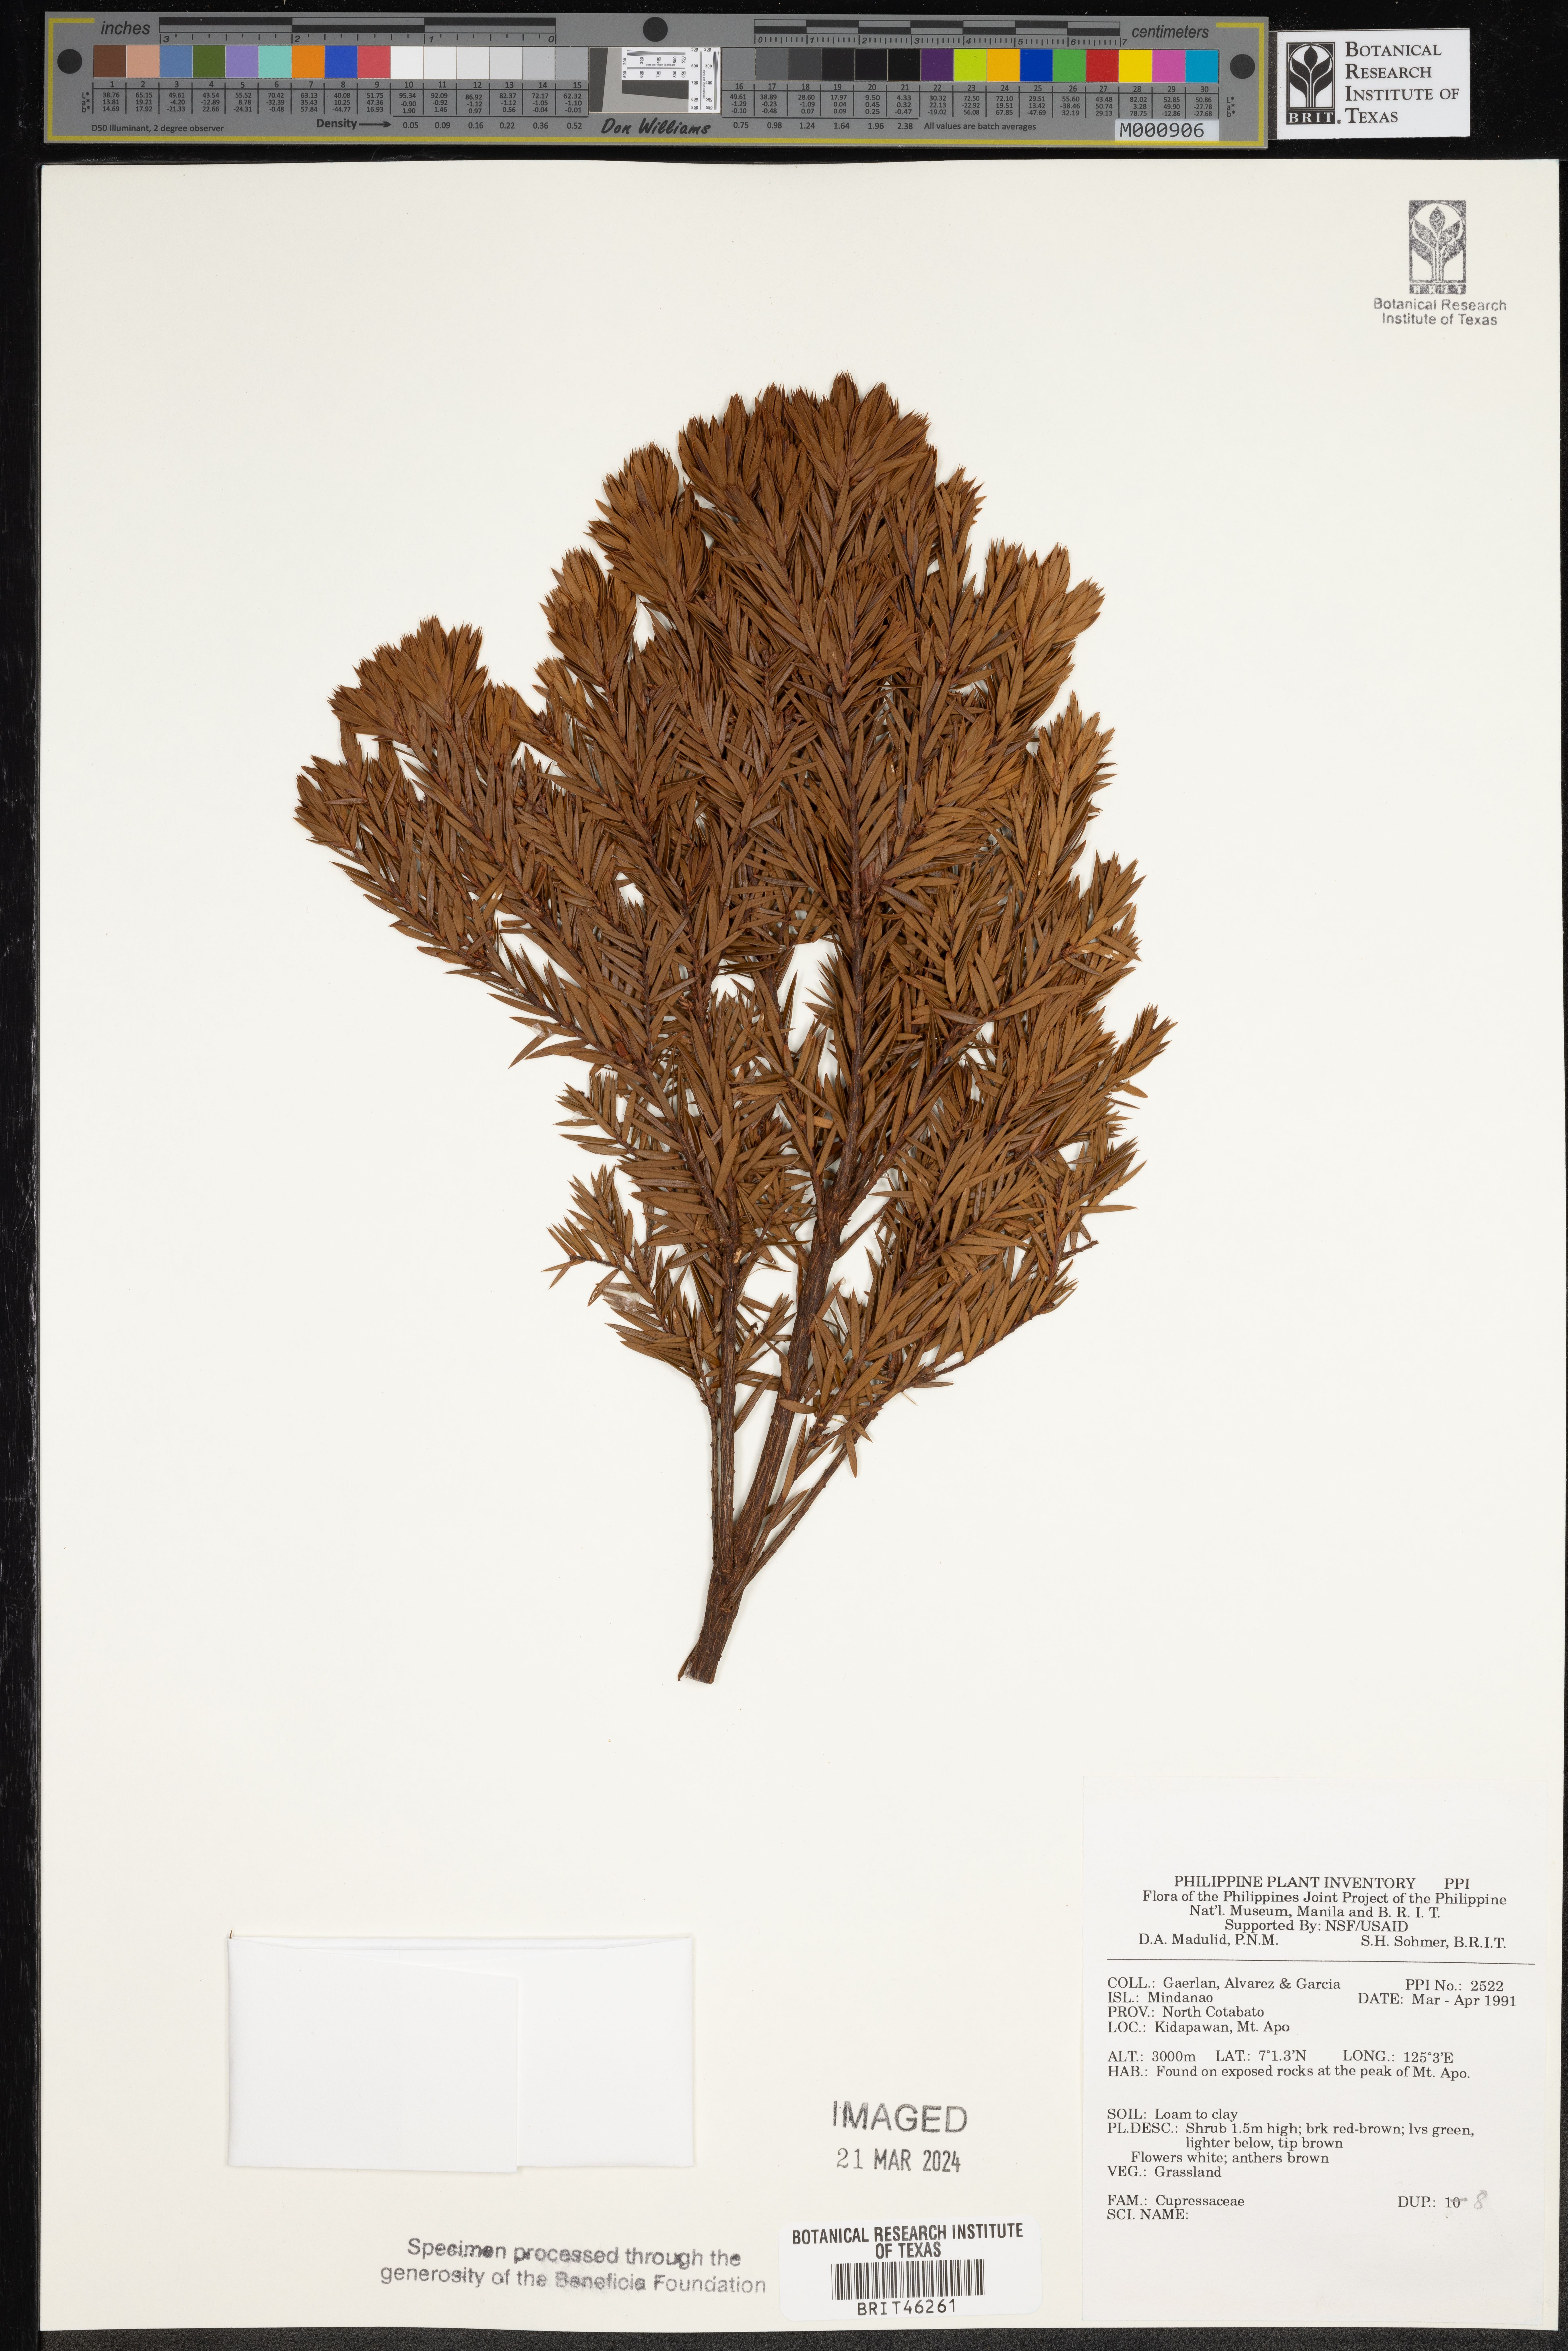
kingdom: Plantae
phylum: Tracheophyta
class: Pinopsida
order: Pinales
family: Cupressaceae
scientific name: Cupressaceae
